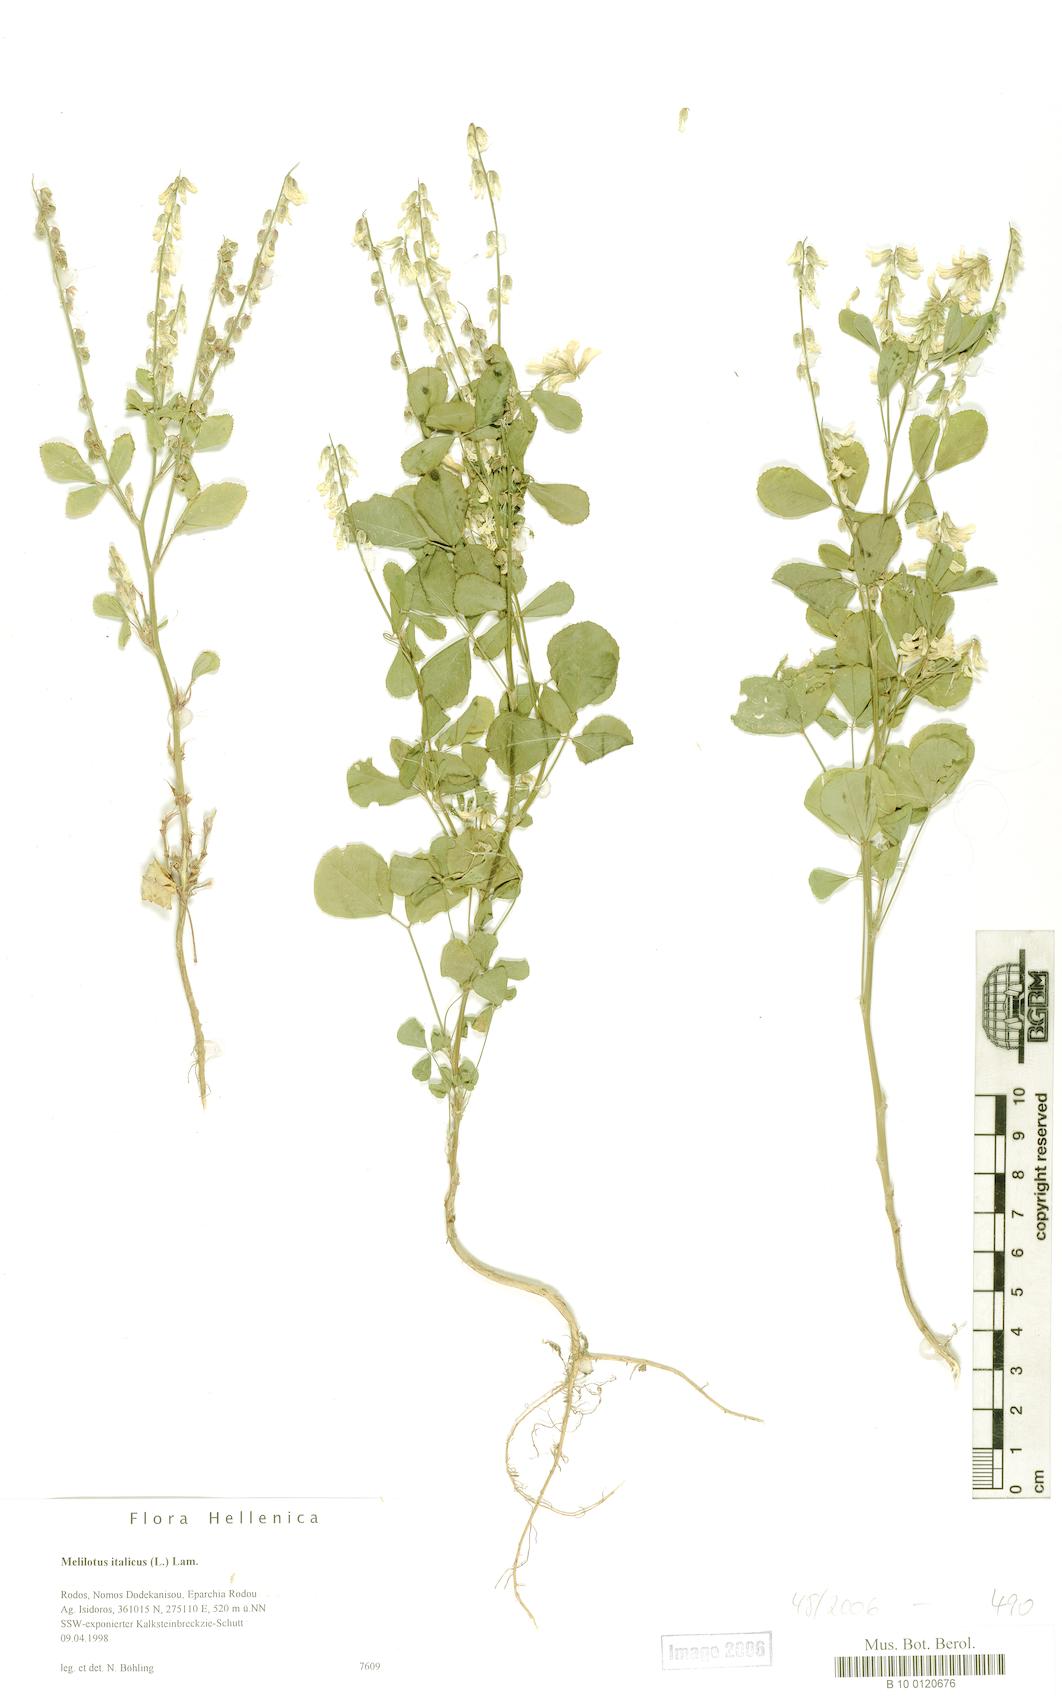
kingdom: Plantae
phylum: Tracheophyta
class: Magnoliopsida
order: Fabales
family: Fabaceae
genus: Melilotus
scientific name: Melilotus italicus
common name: Italian melilot
